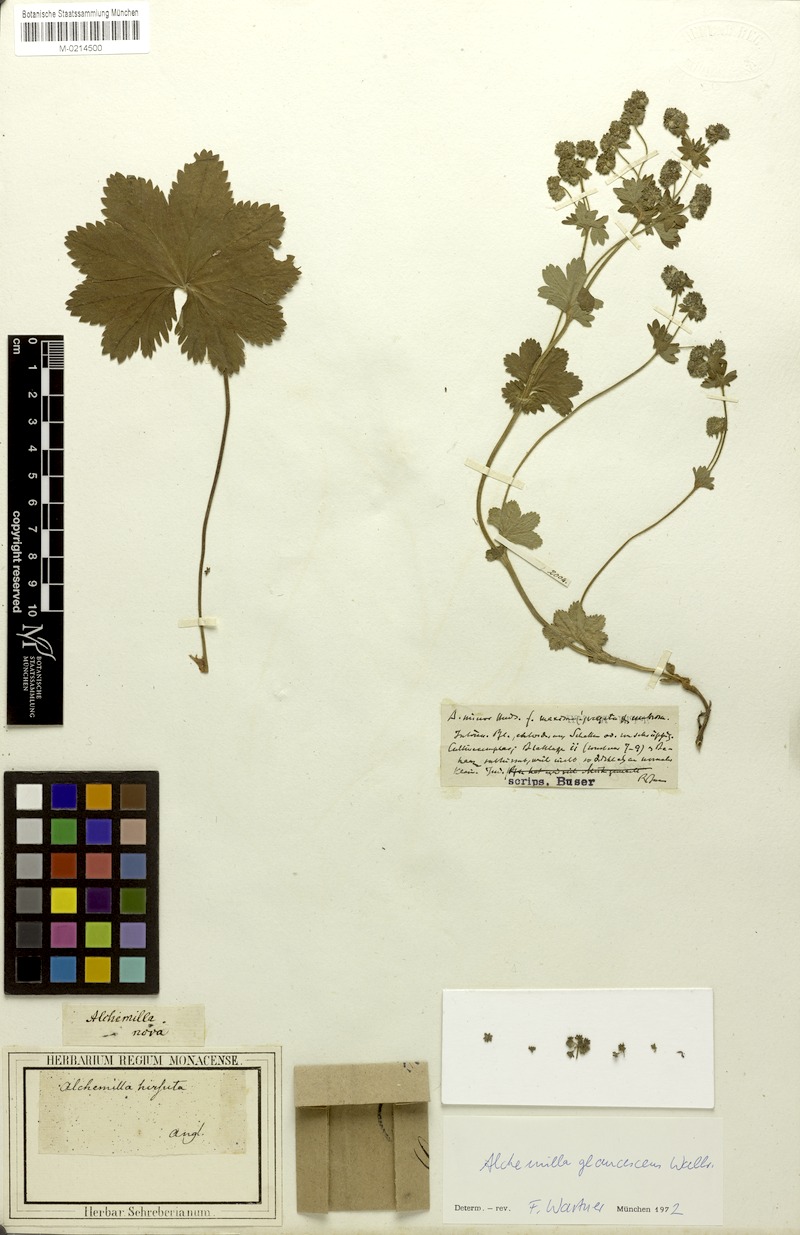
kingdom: Plantae
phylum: Tracheophyta
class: Magnoliopsida
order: Rosales
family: Rosaceae
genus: Alchemilla
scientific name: Alchemilla glaucescens
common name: Silky lady's mantle
